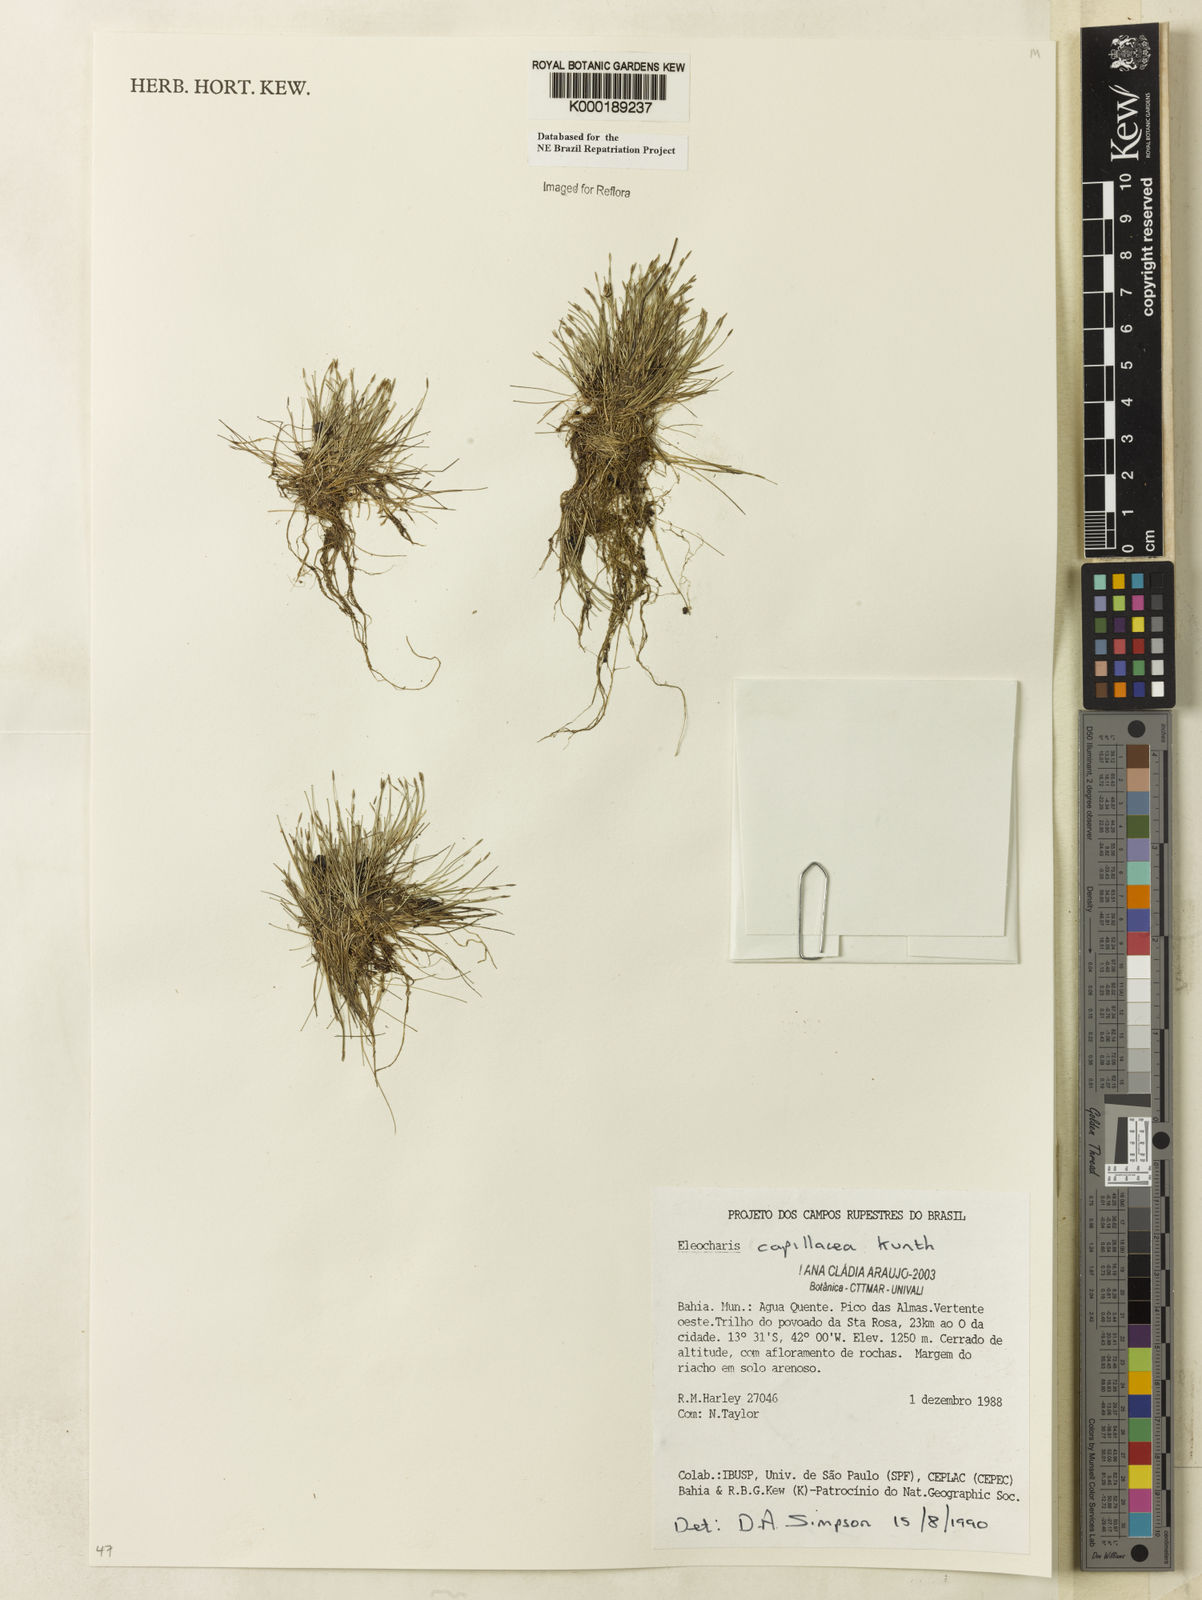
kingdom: Plantae
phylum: Tracheophyta
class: Liliopsida
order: Poales
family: Cyperaceae
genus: Eleocharis
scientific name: Eleocharis
